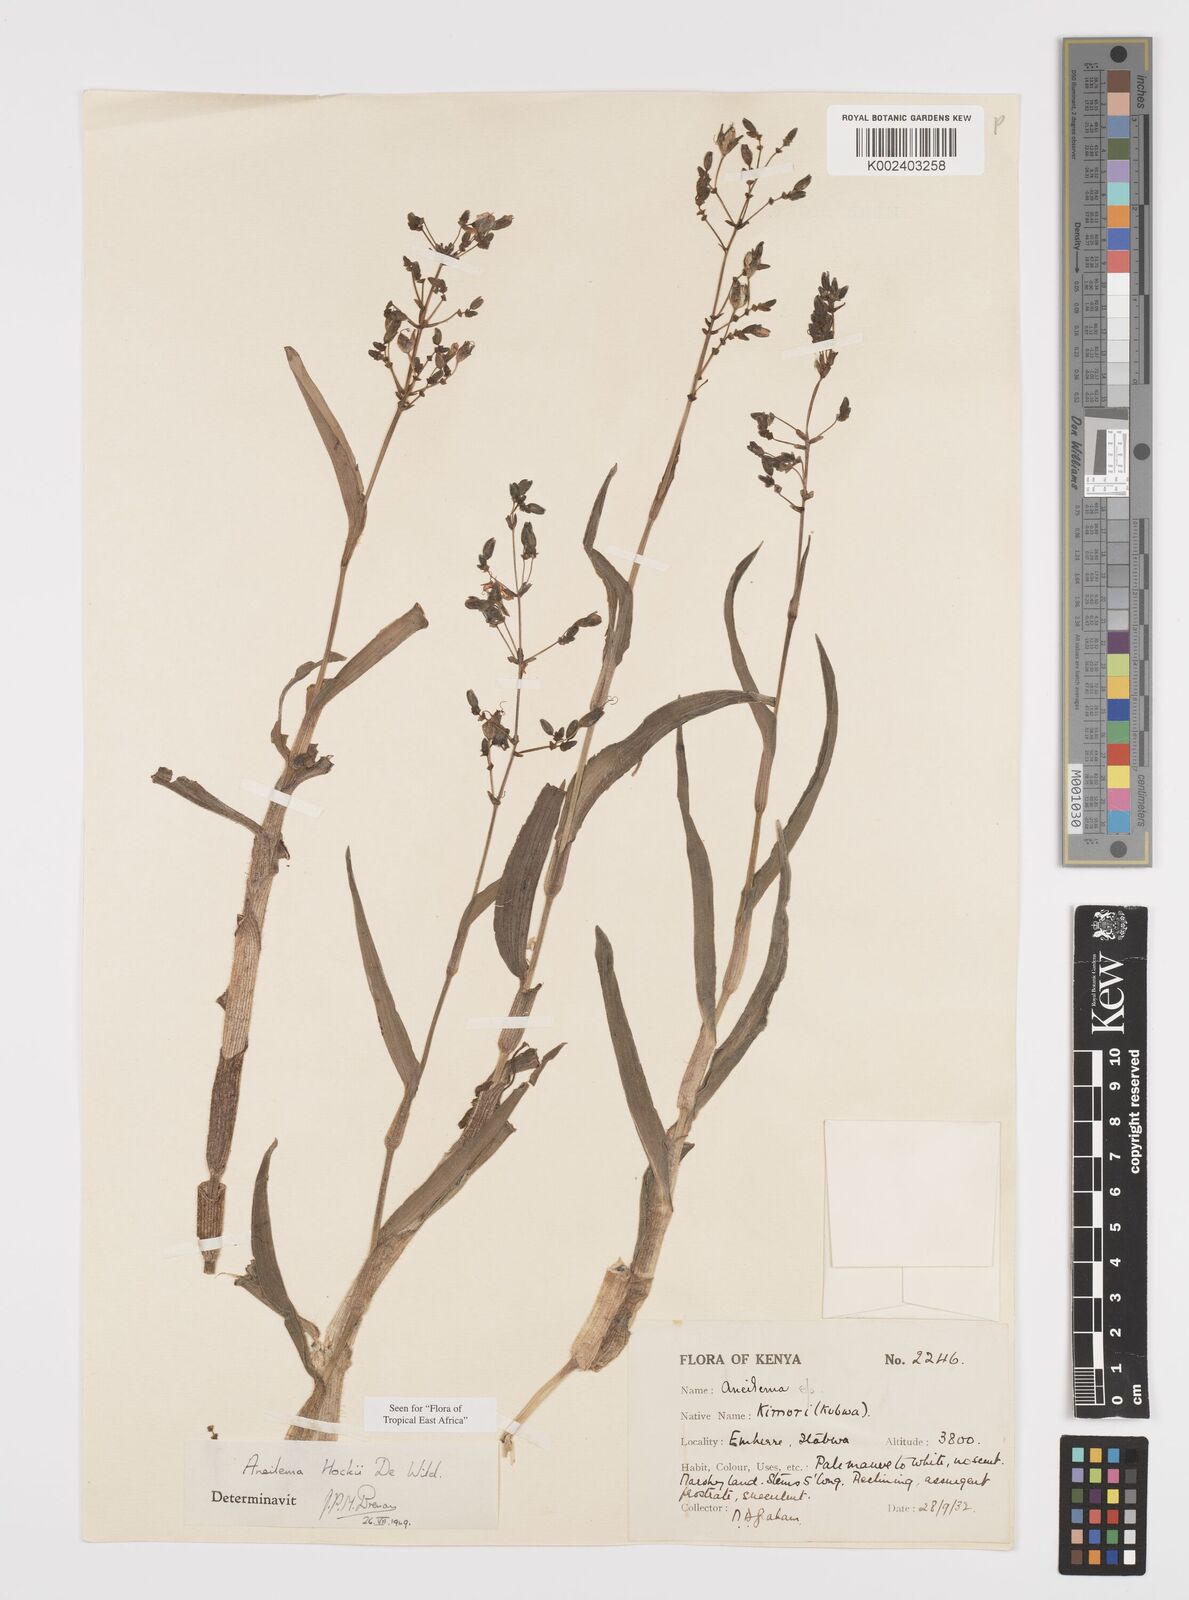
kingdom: Plantae
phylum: Tracheophyta
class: Liliopsida
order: Commelinales
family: Commelinaceae
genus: Aneilema
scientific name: Aneilema hockii
